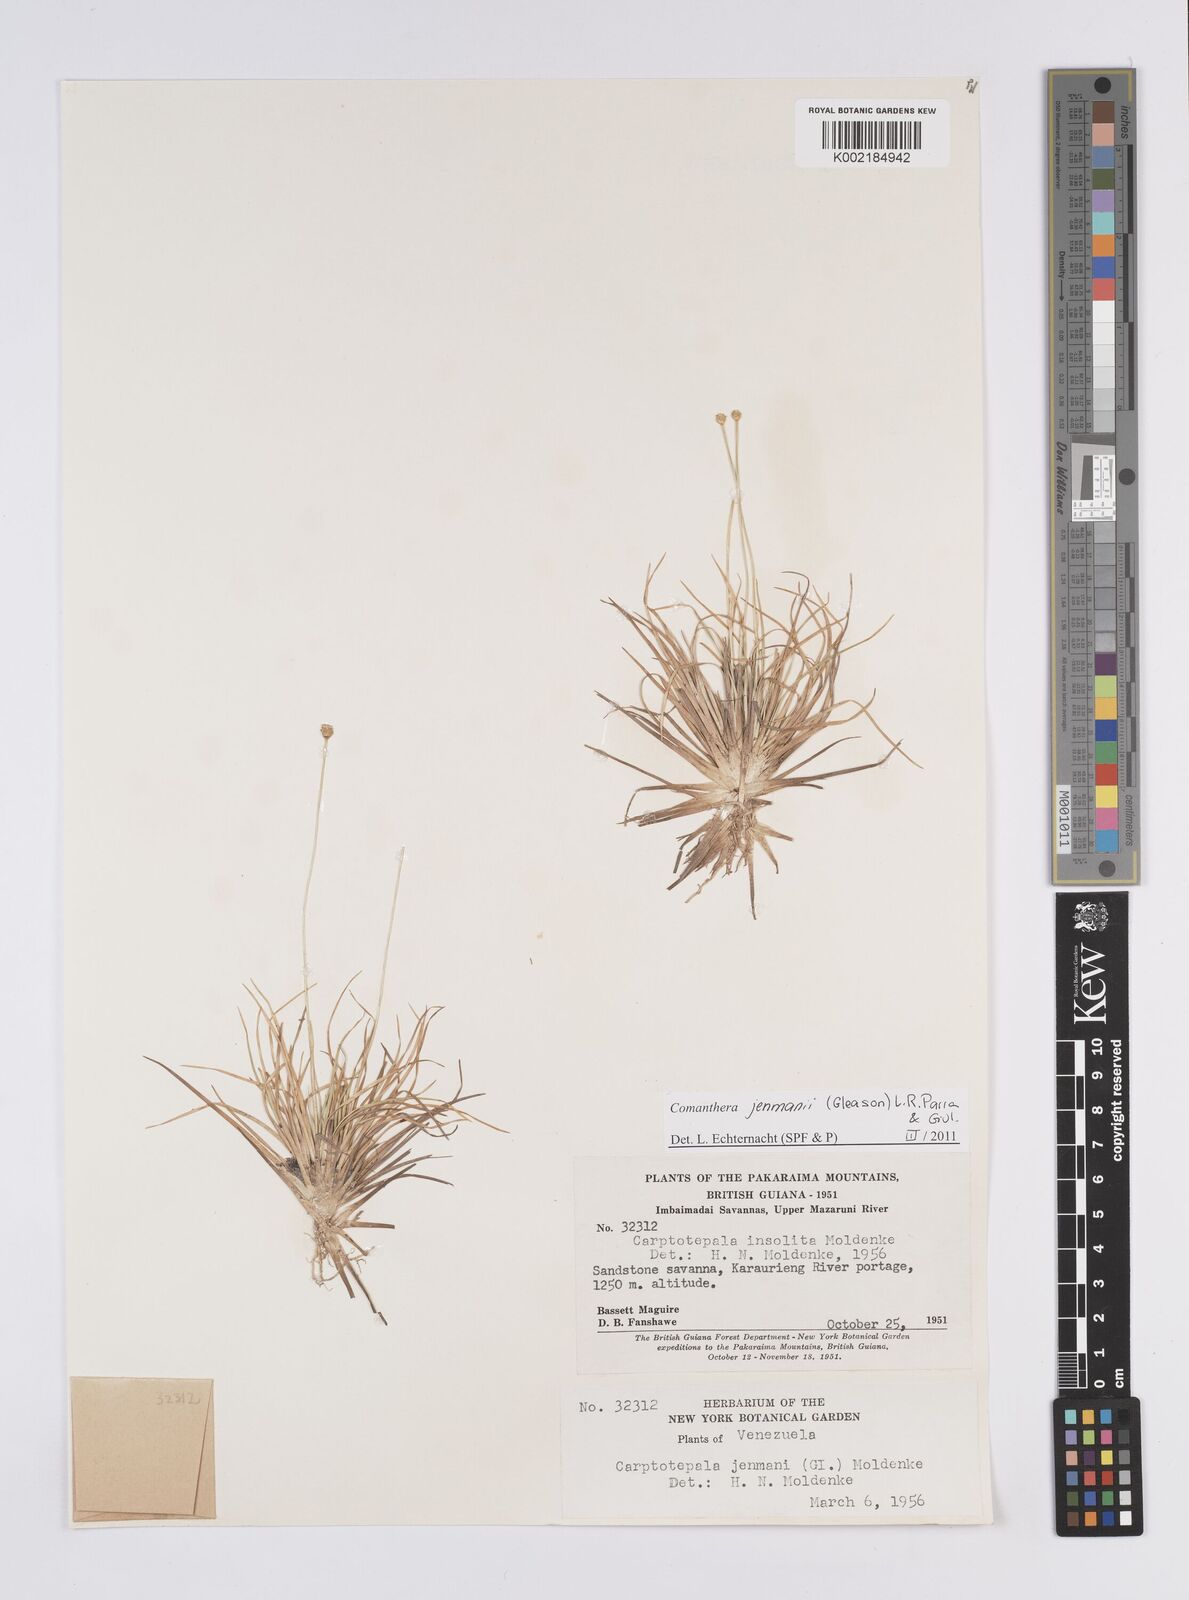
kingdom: Plantae
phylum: Tracheophyta
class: Liliopsida
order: Poales
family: Eriocaulaceae
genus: Comanthera
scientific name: Comanthera jenmanii
